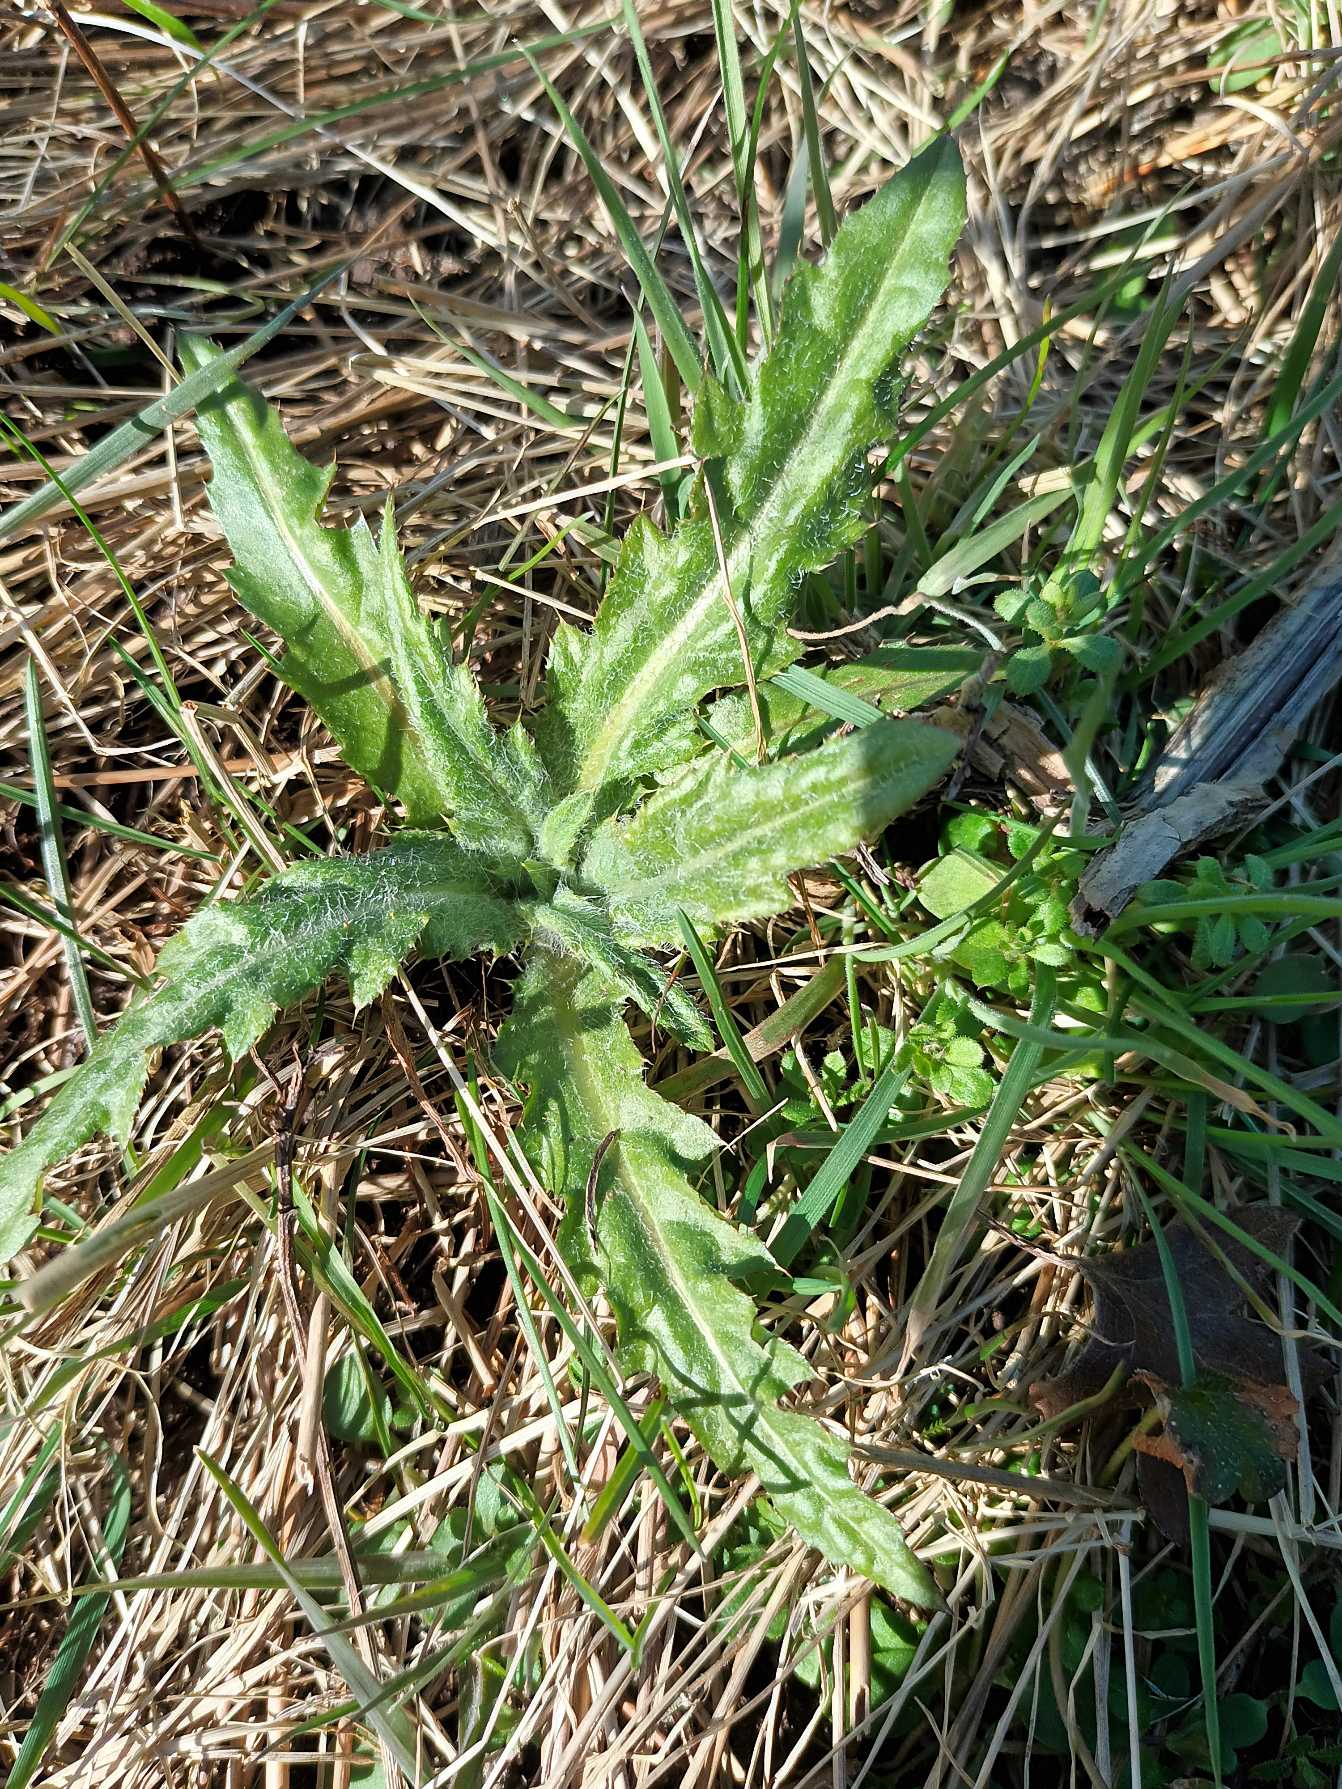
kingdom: Plantae
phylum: Tracheophyta
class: Magnoliopsida
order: Asterales
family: Asteraceae
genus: Cirsium
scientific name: Cirsium arvense
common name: Ager-tidsel
